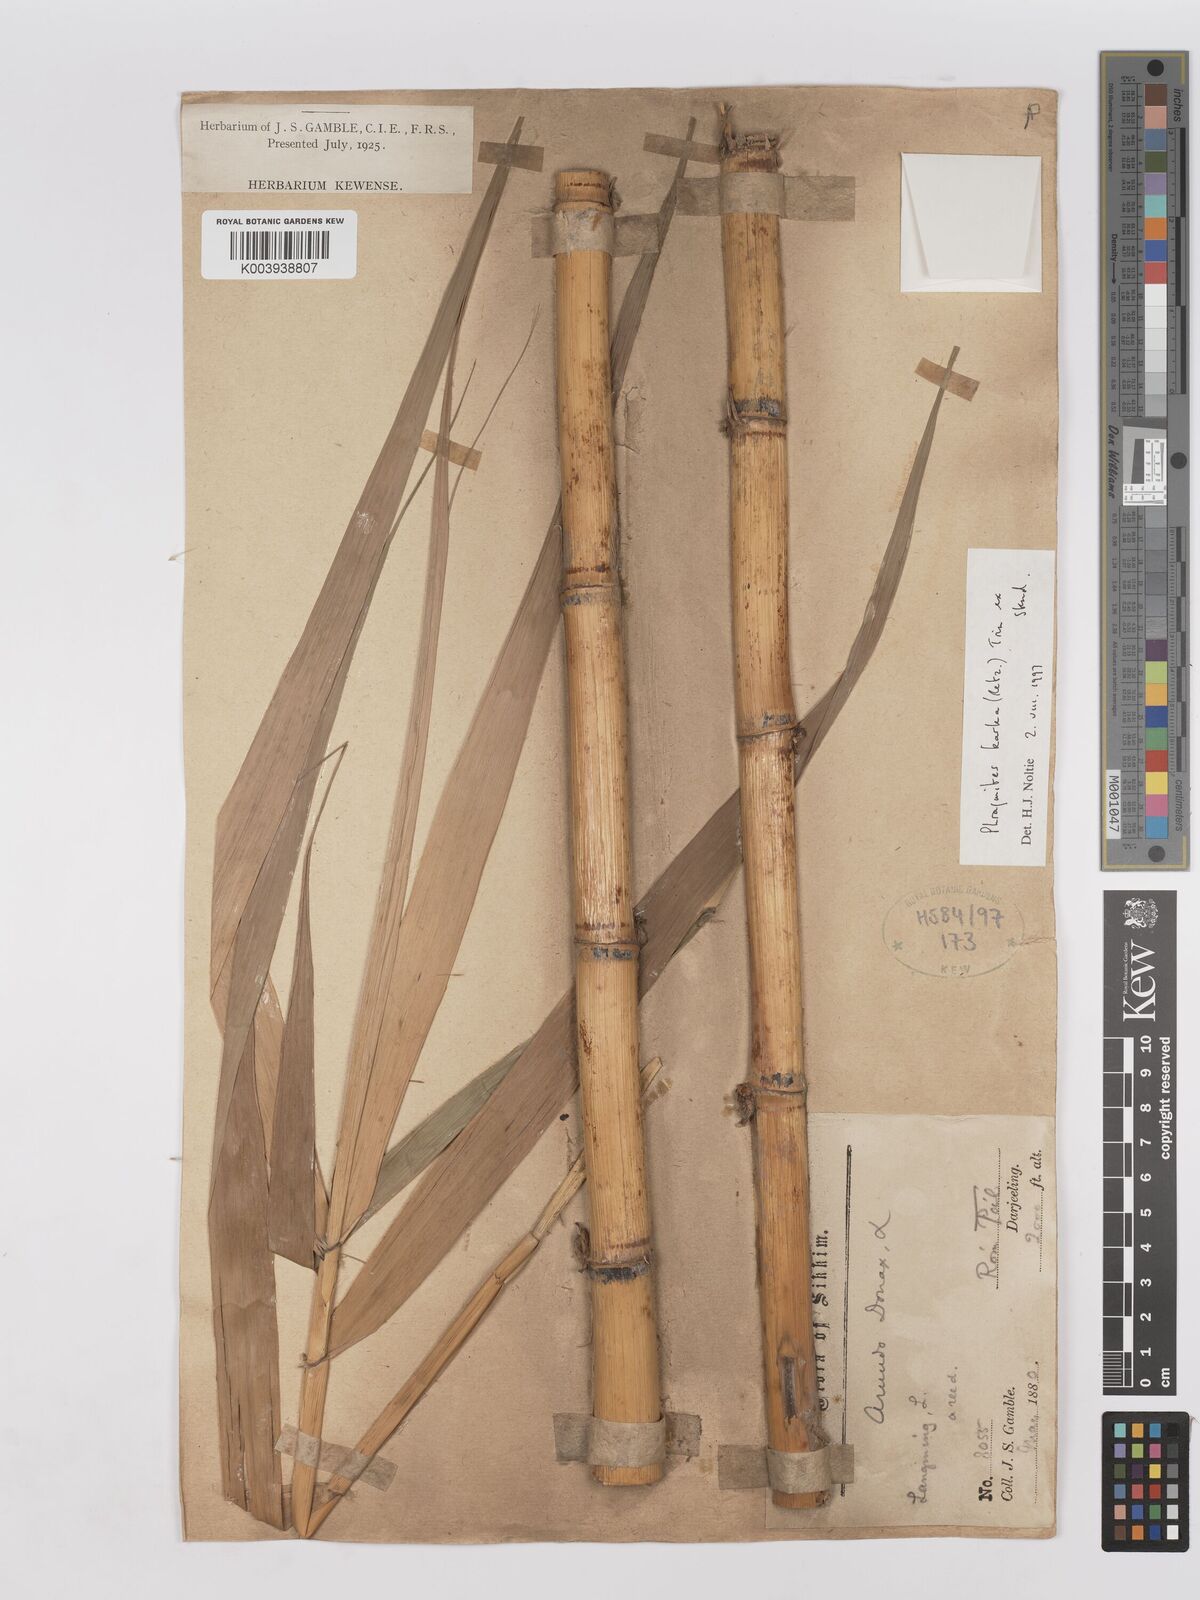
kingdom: Plantae
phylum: Tracheophyta
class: Liliopsida
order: Poales
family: Poaceae
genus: Phragmites
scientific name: Phragmites karka
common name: Tropical reed
